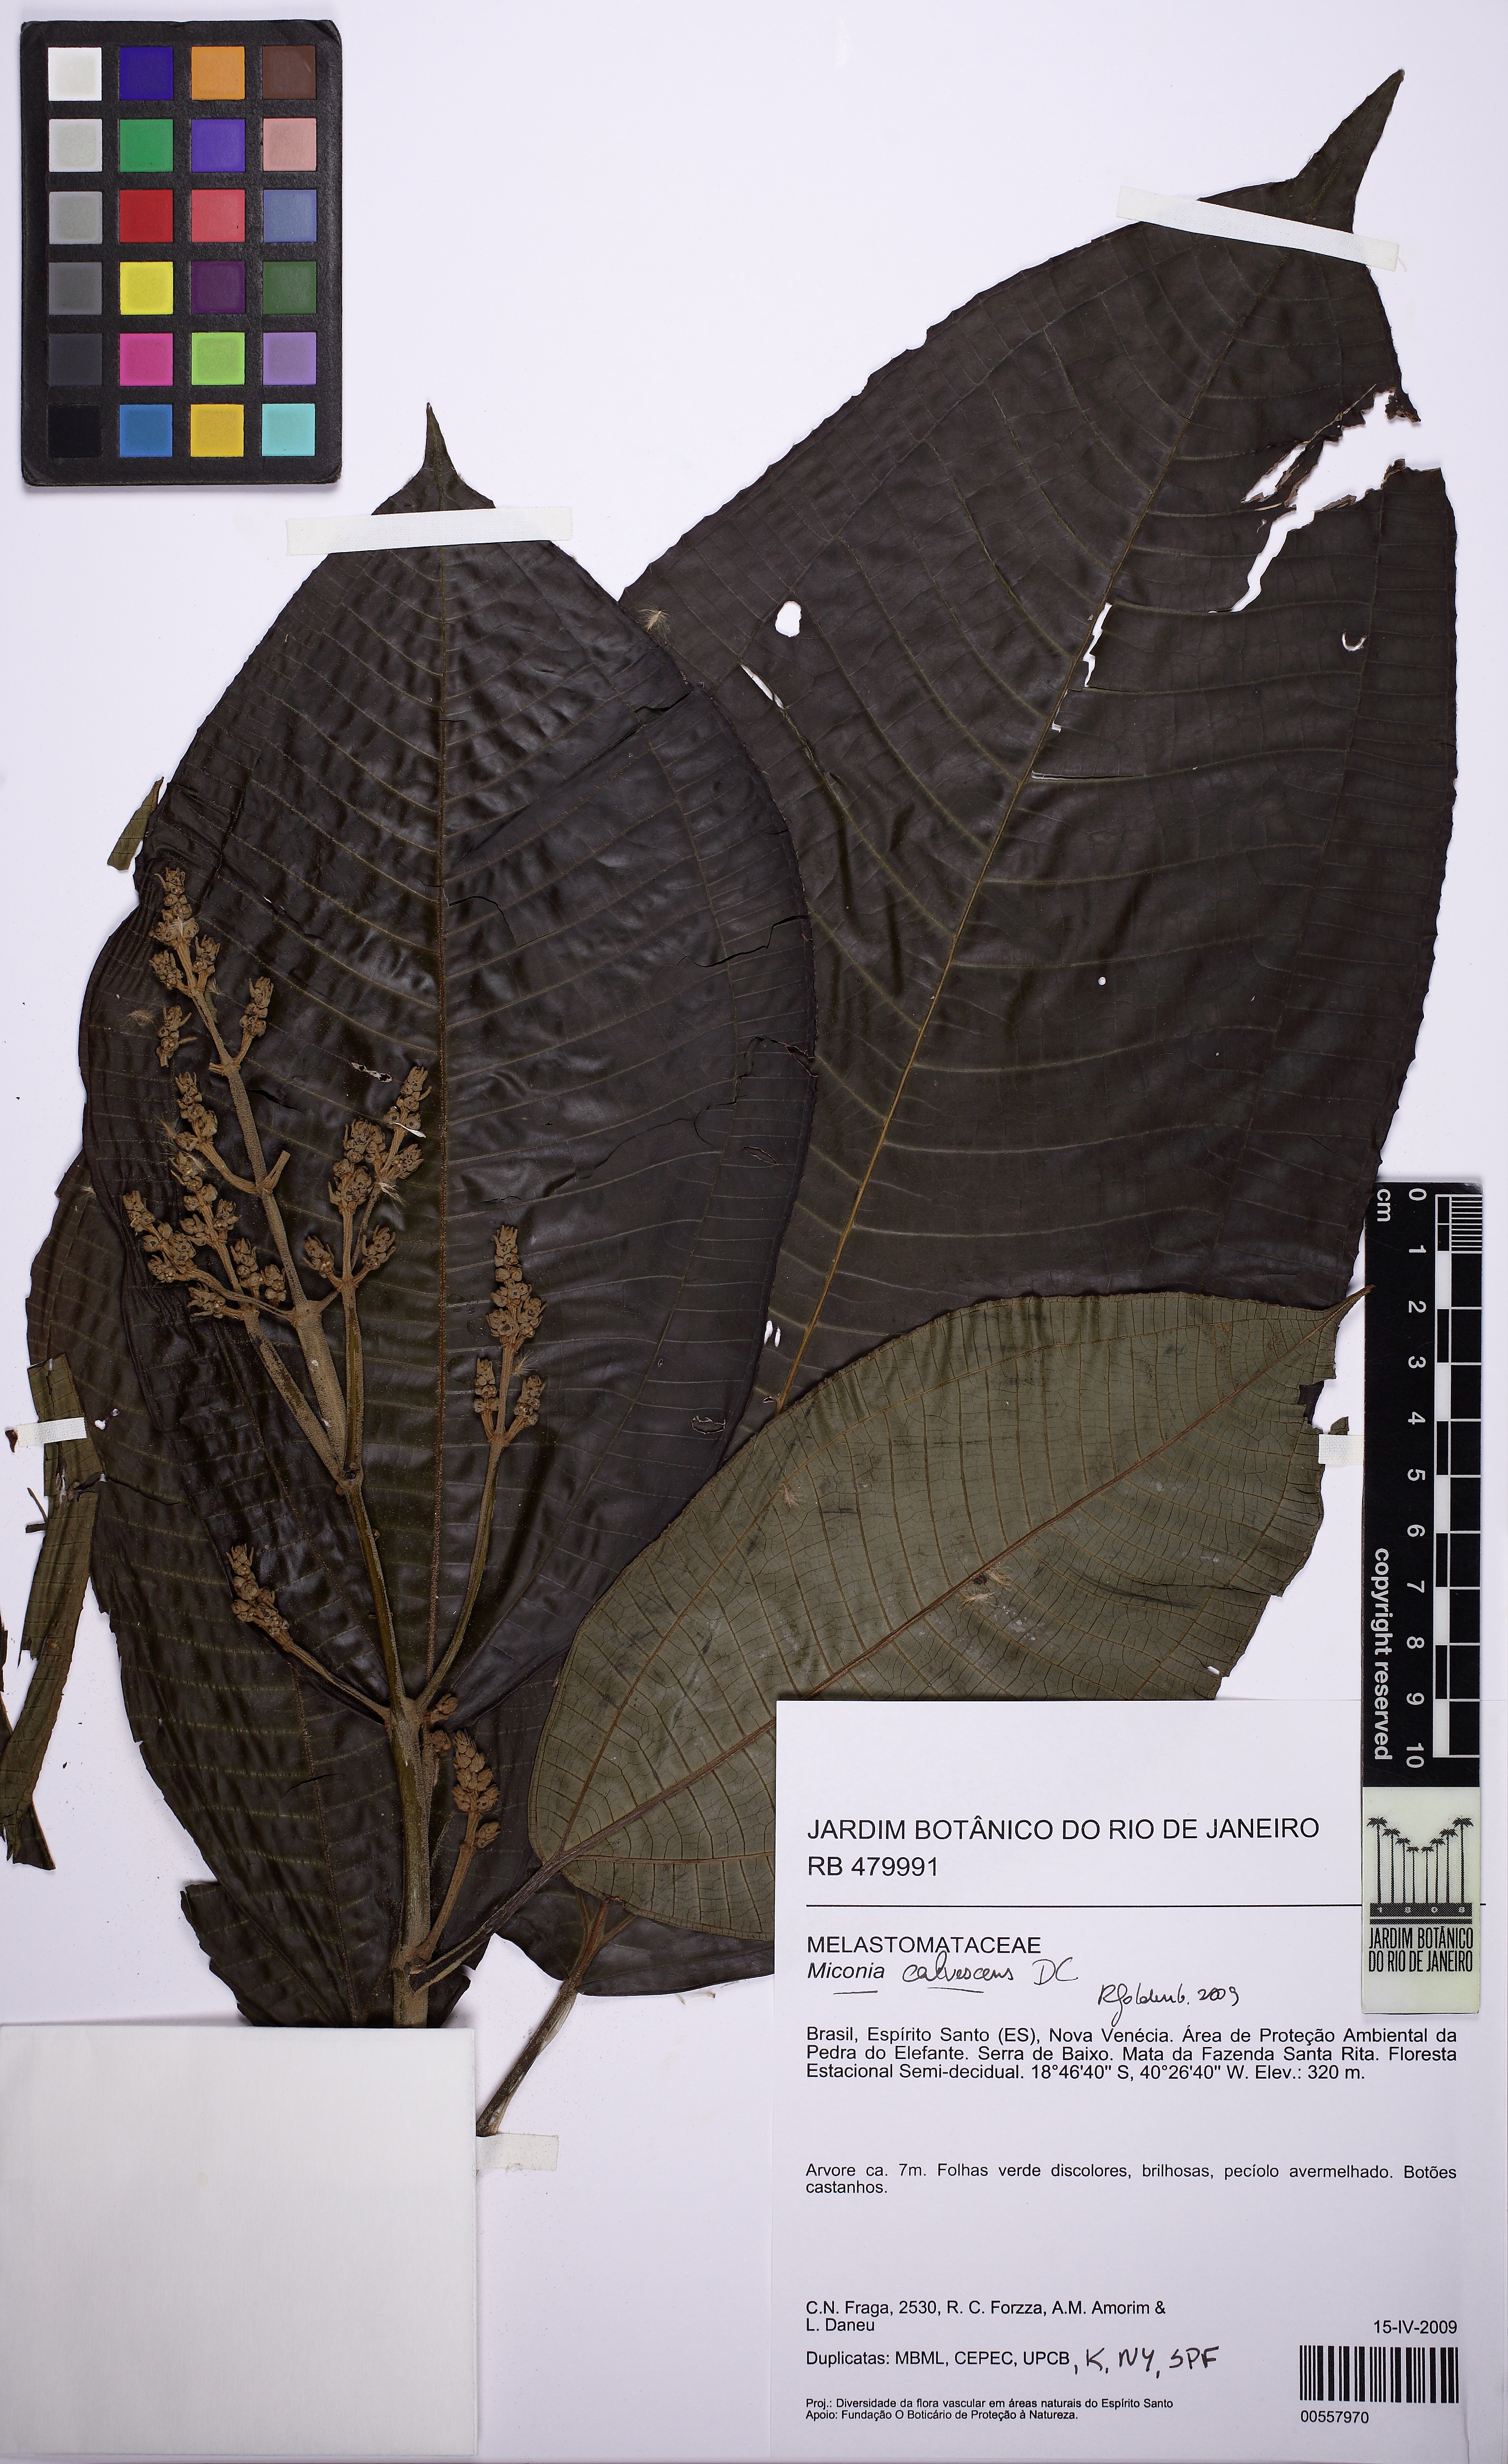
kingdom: Plantae
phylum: Tracheophyta
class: Magnoliopsida
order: Myrtales
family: Melastomataceae
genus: Miconia
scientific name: Miconia calvescens
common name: Purple plague
